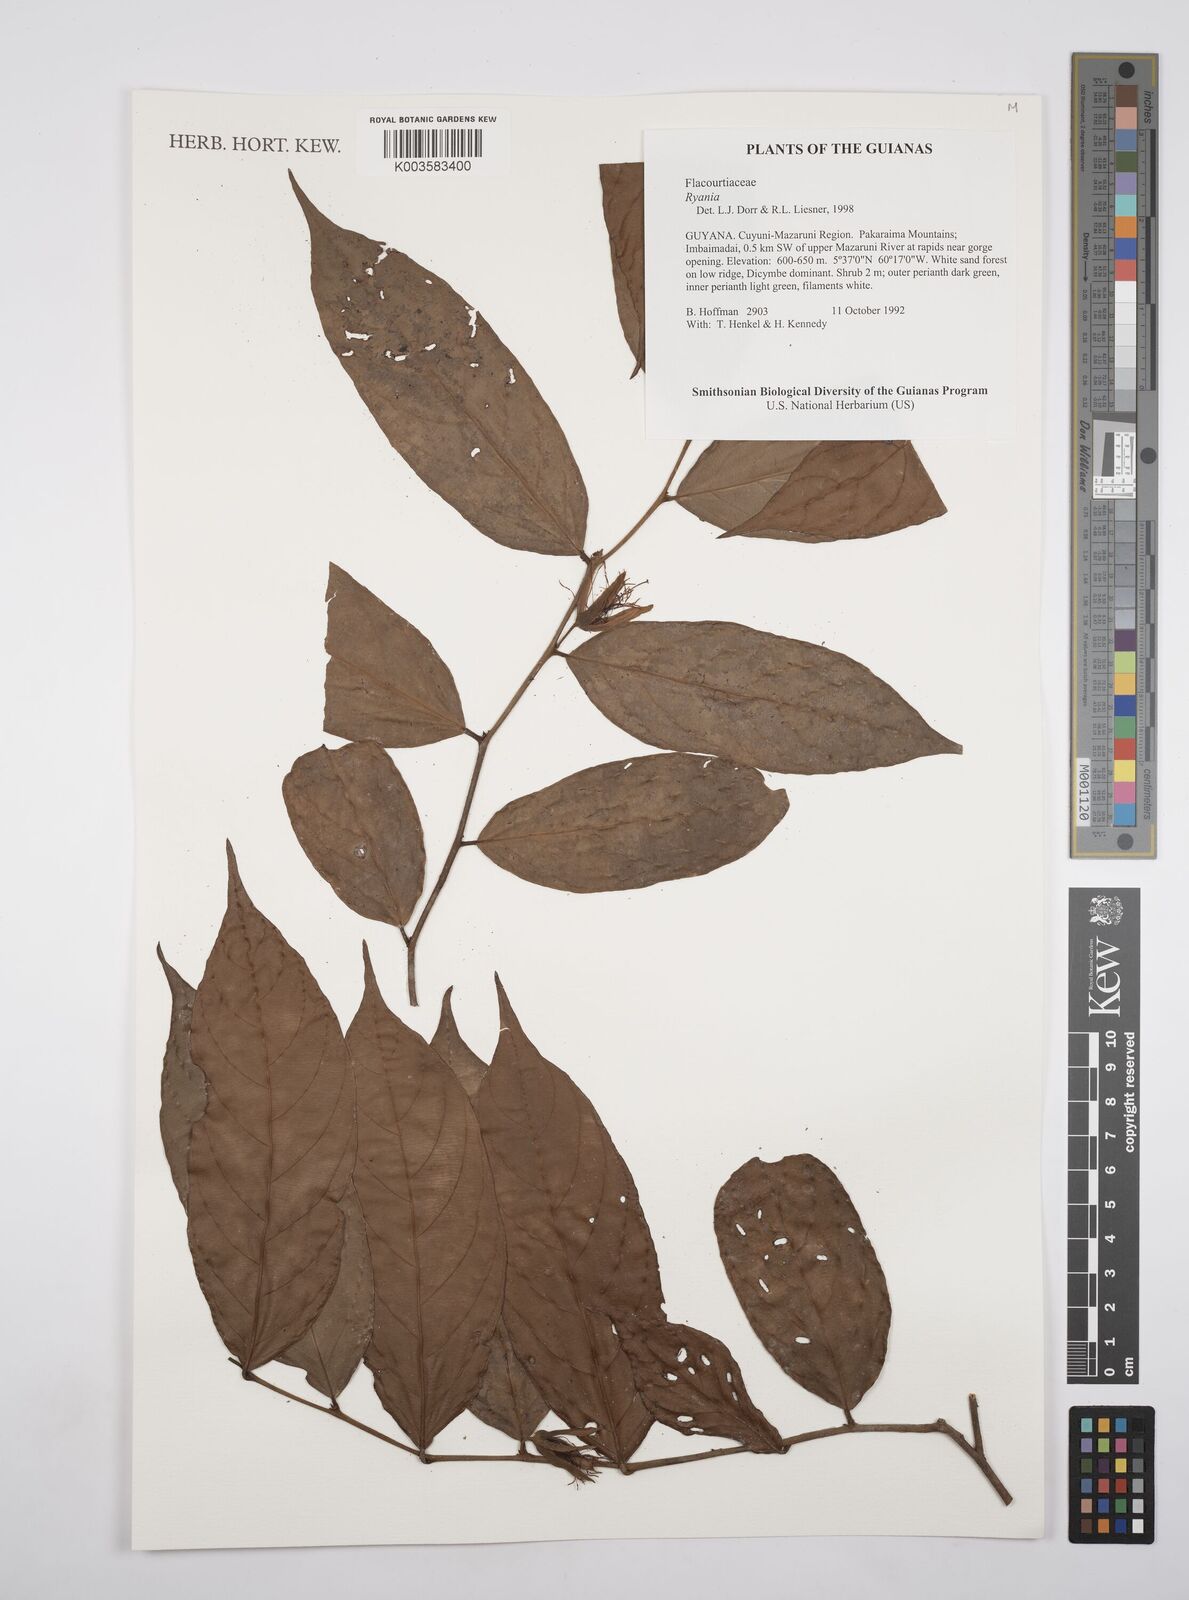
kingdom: Plantae
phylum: Tracheophyta
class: Magnoliopsida
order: Malpighiales
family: Salicaceae
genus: Ryania
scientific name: Ryania
